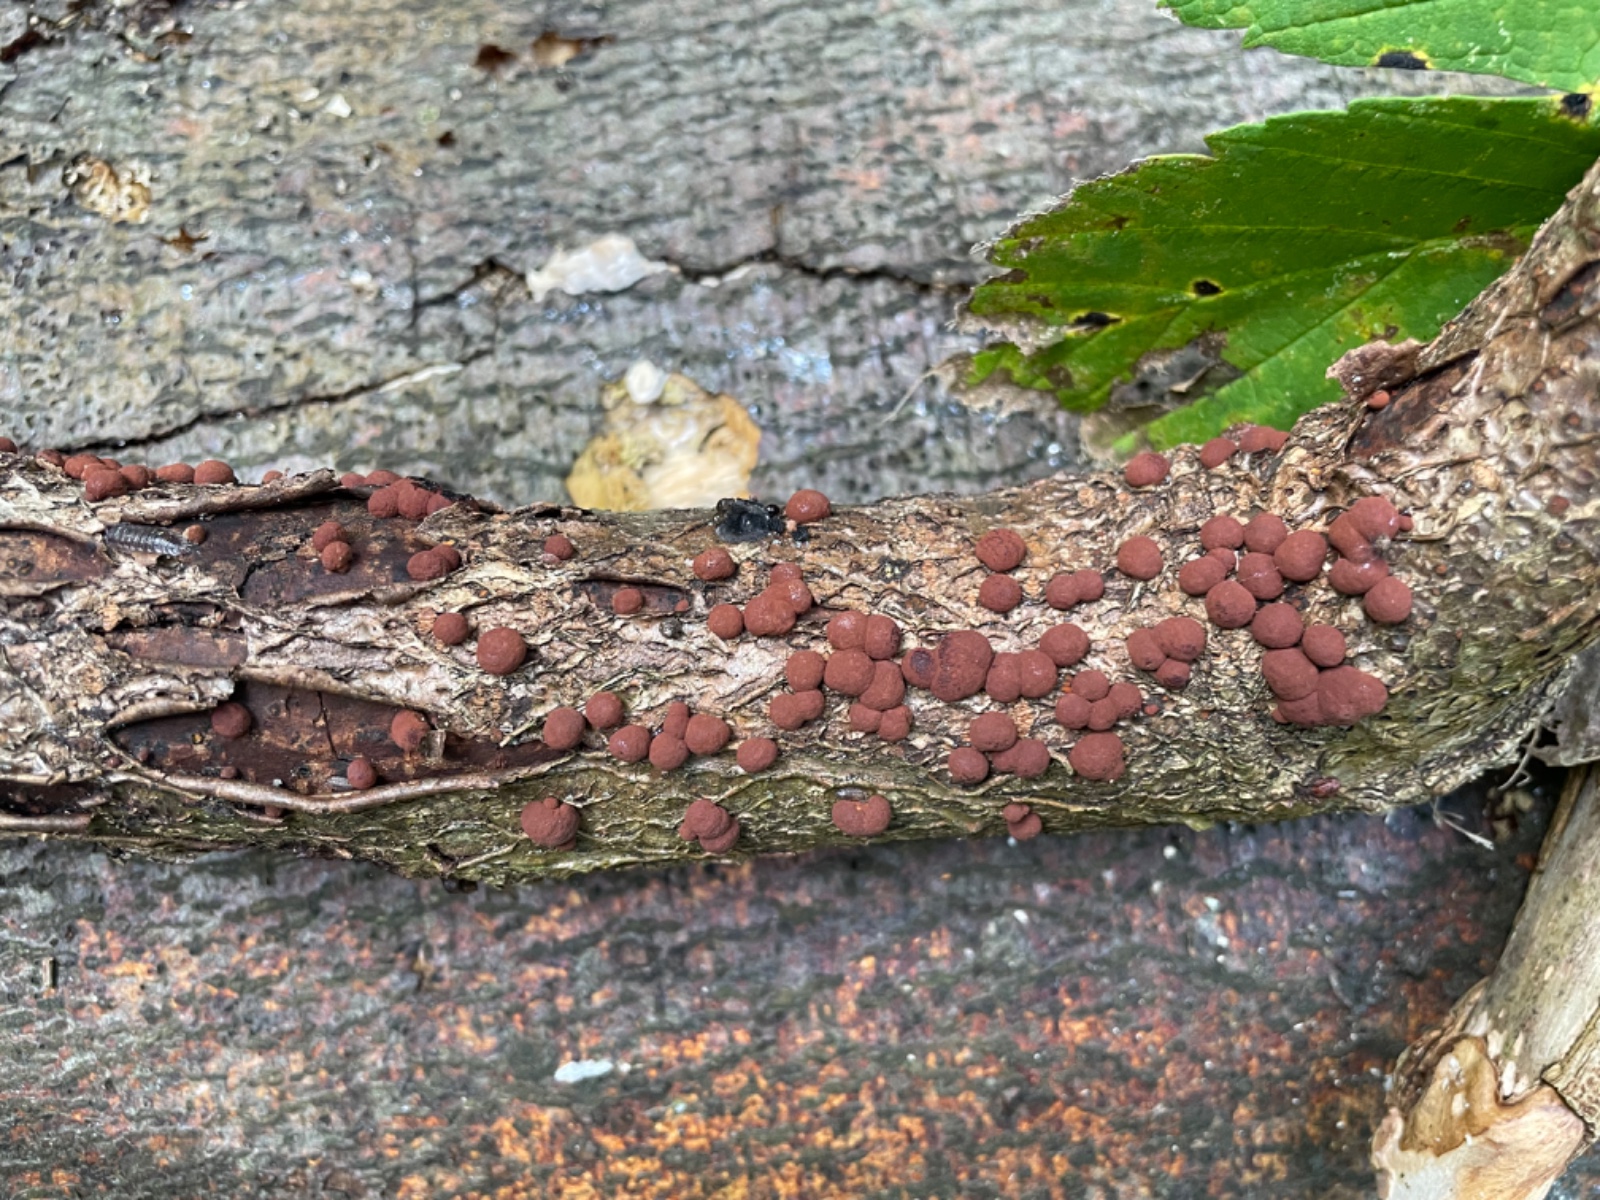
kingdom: Fungi
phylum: Ascomycota
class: Sordariomycetes
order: Xylariales
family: Hypoxylaceae
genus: Hypoxylon
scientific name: Hypoxylon fragiforme
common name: kuljordbær
